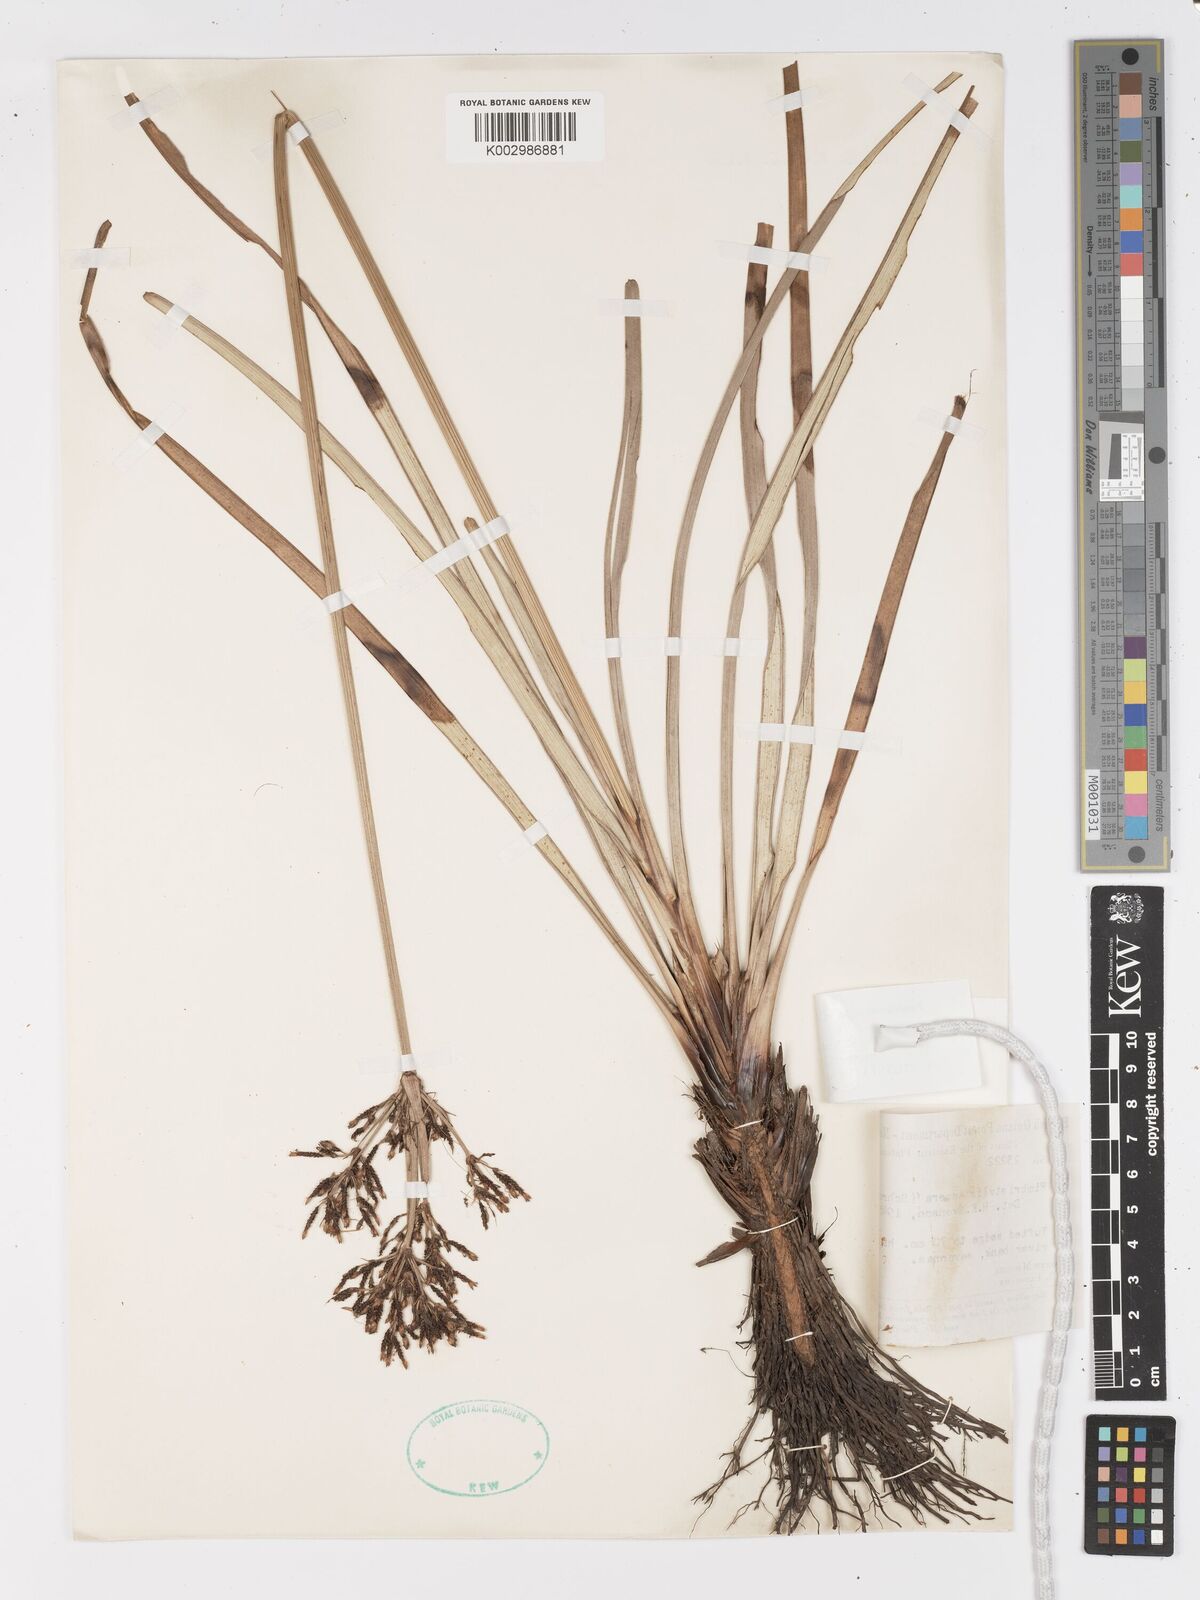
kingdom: Plantae
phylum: Tracheophyta
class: Liliopsida
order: Poales
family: Cyperaceae
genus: Fimbristylis
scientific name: Fimbristylis aspera
